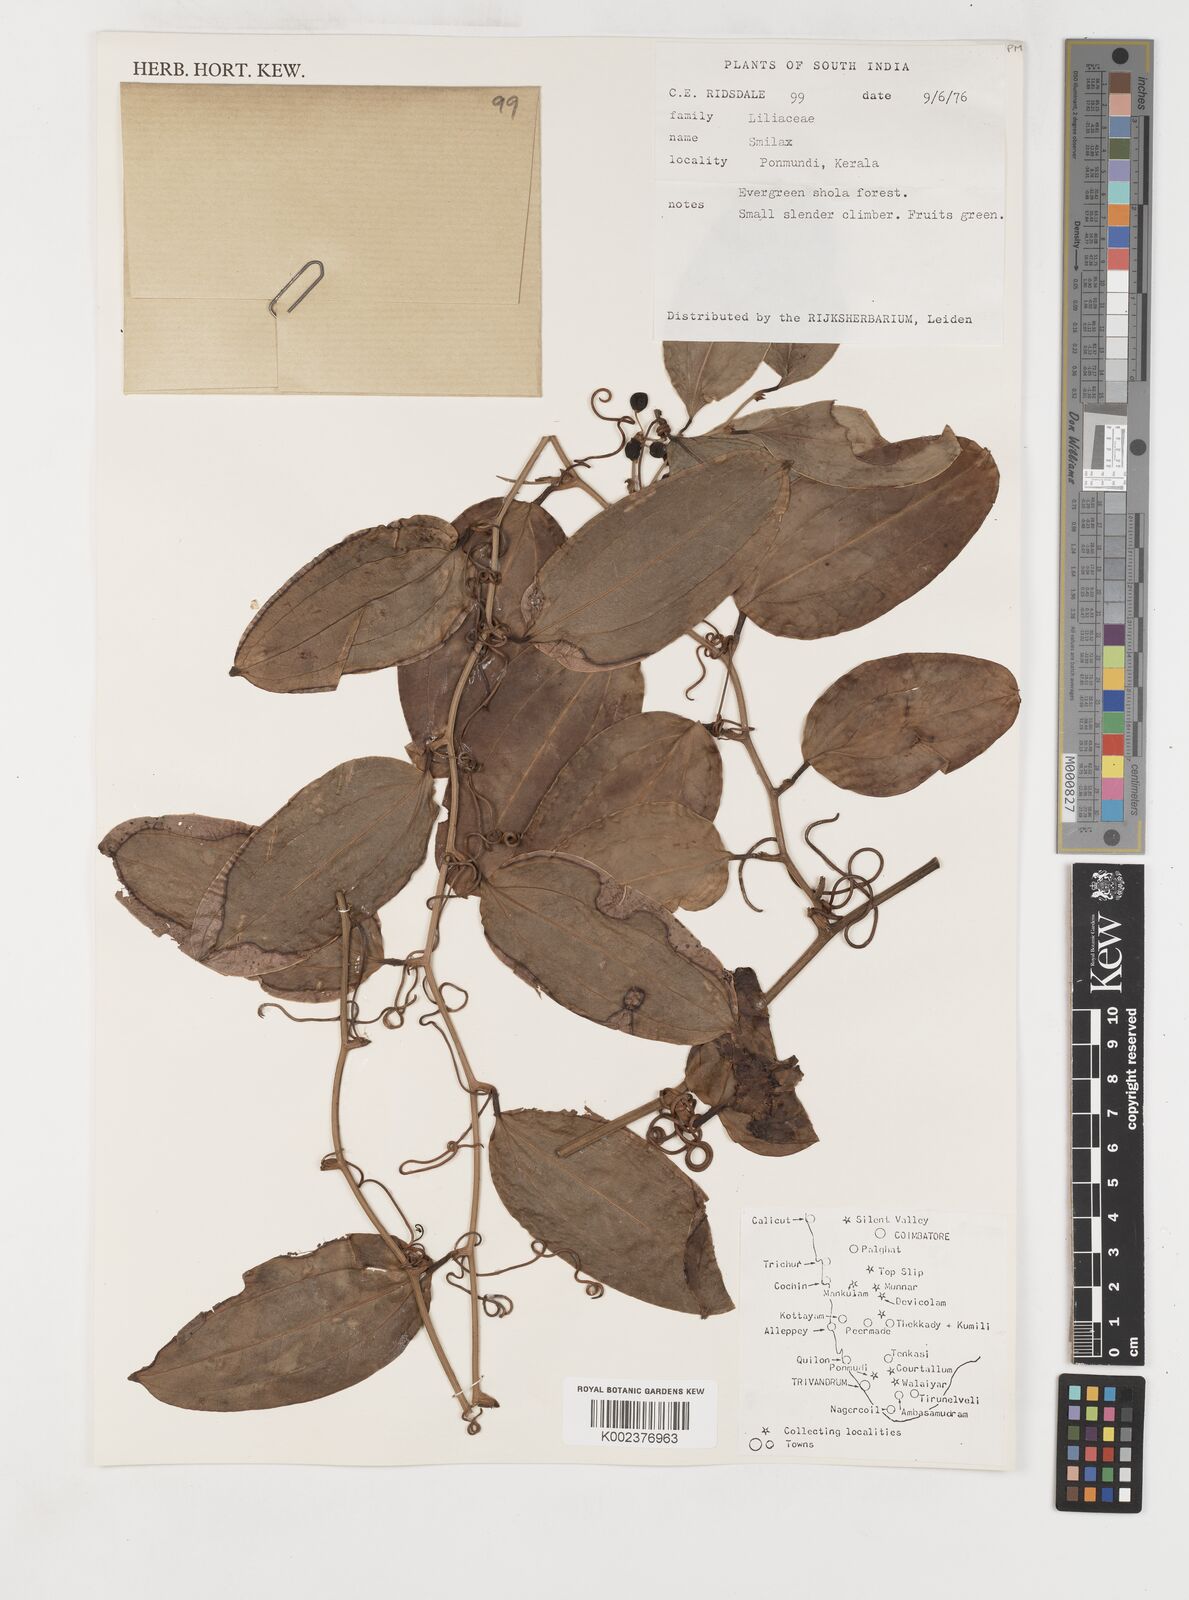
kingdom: Plantae
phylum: Tracheophyta
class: Liliopsida
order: Liliales
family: Smilacaceae
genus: Smilax
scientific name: Smilax
